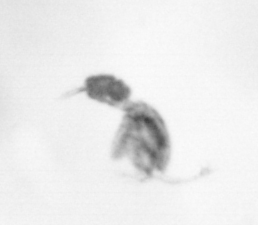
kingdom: Animalia
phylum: Arthropoda
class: Copepoda
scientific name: Copepoda
